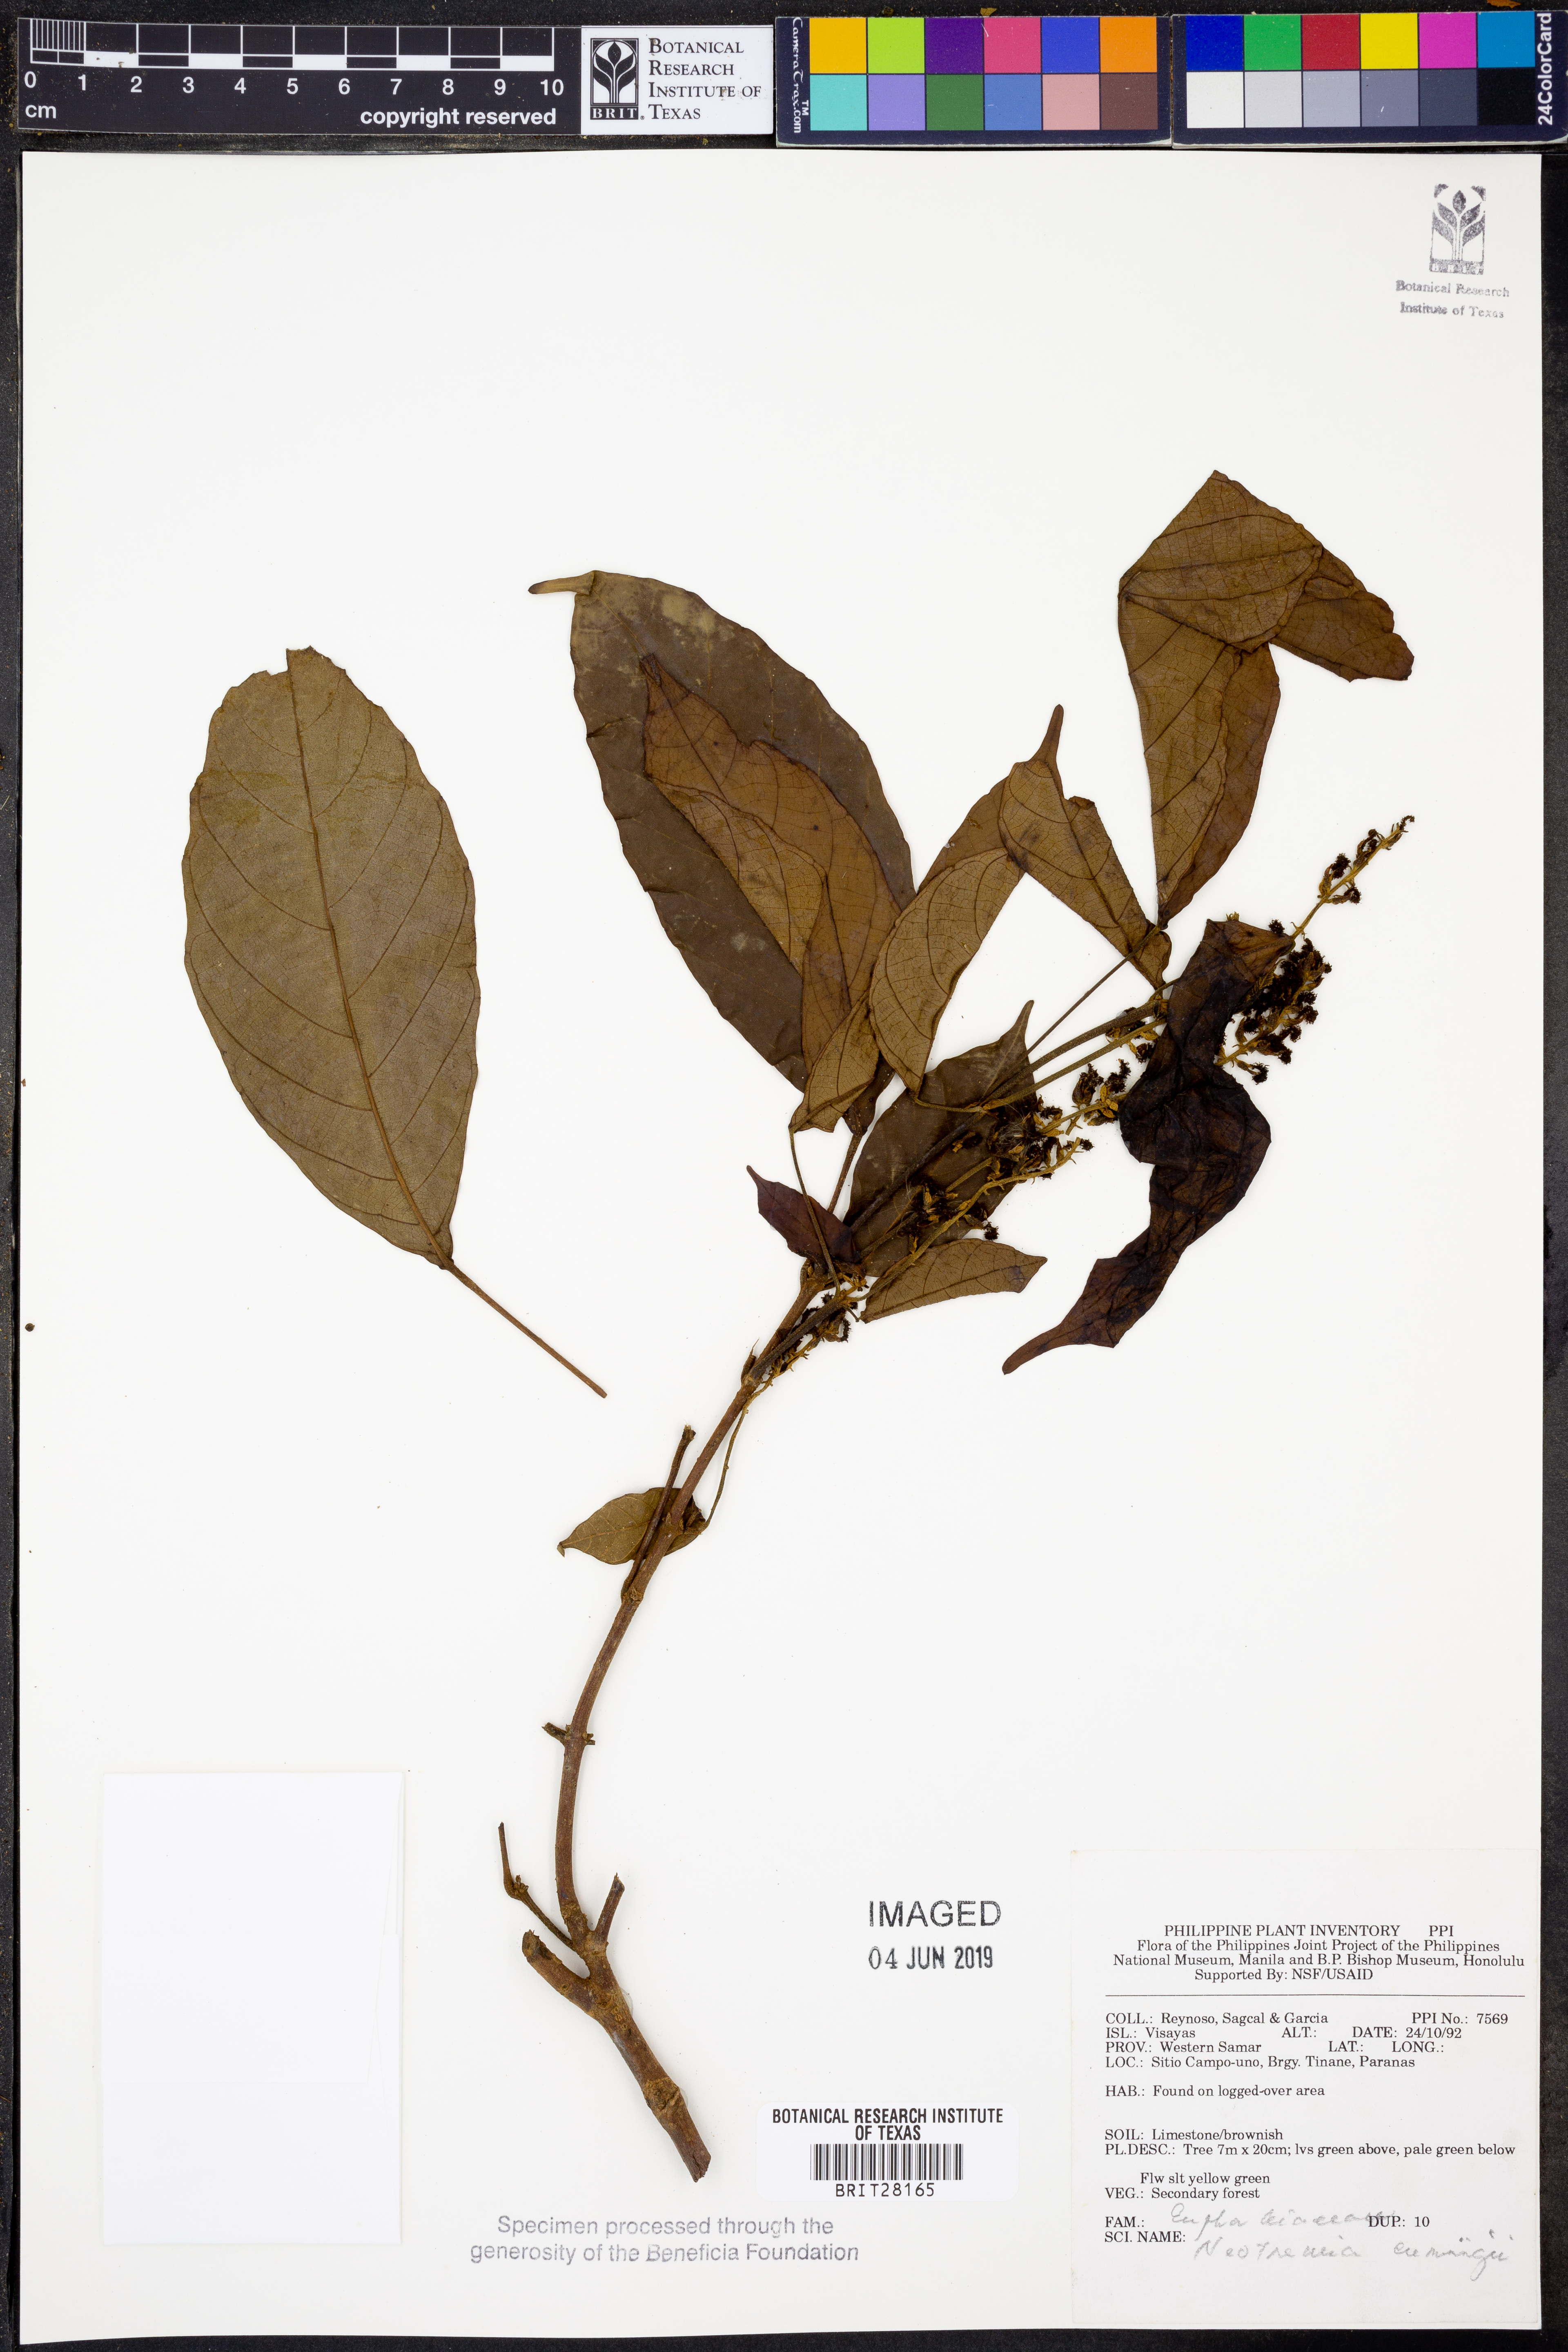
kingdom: Plantae
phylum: Tracheophyta
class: Magnoliopsida
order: Malpighiales
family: Euphorbiaceae
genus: Mallotus
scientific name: Mallotus cumingii
